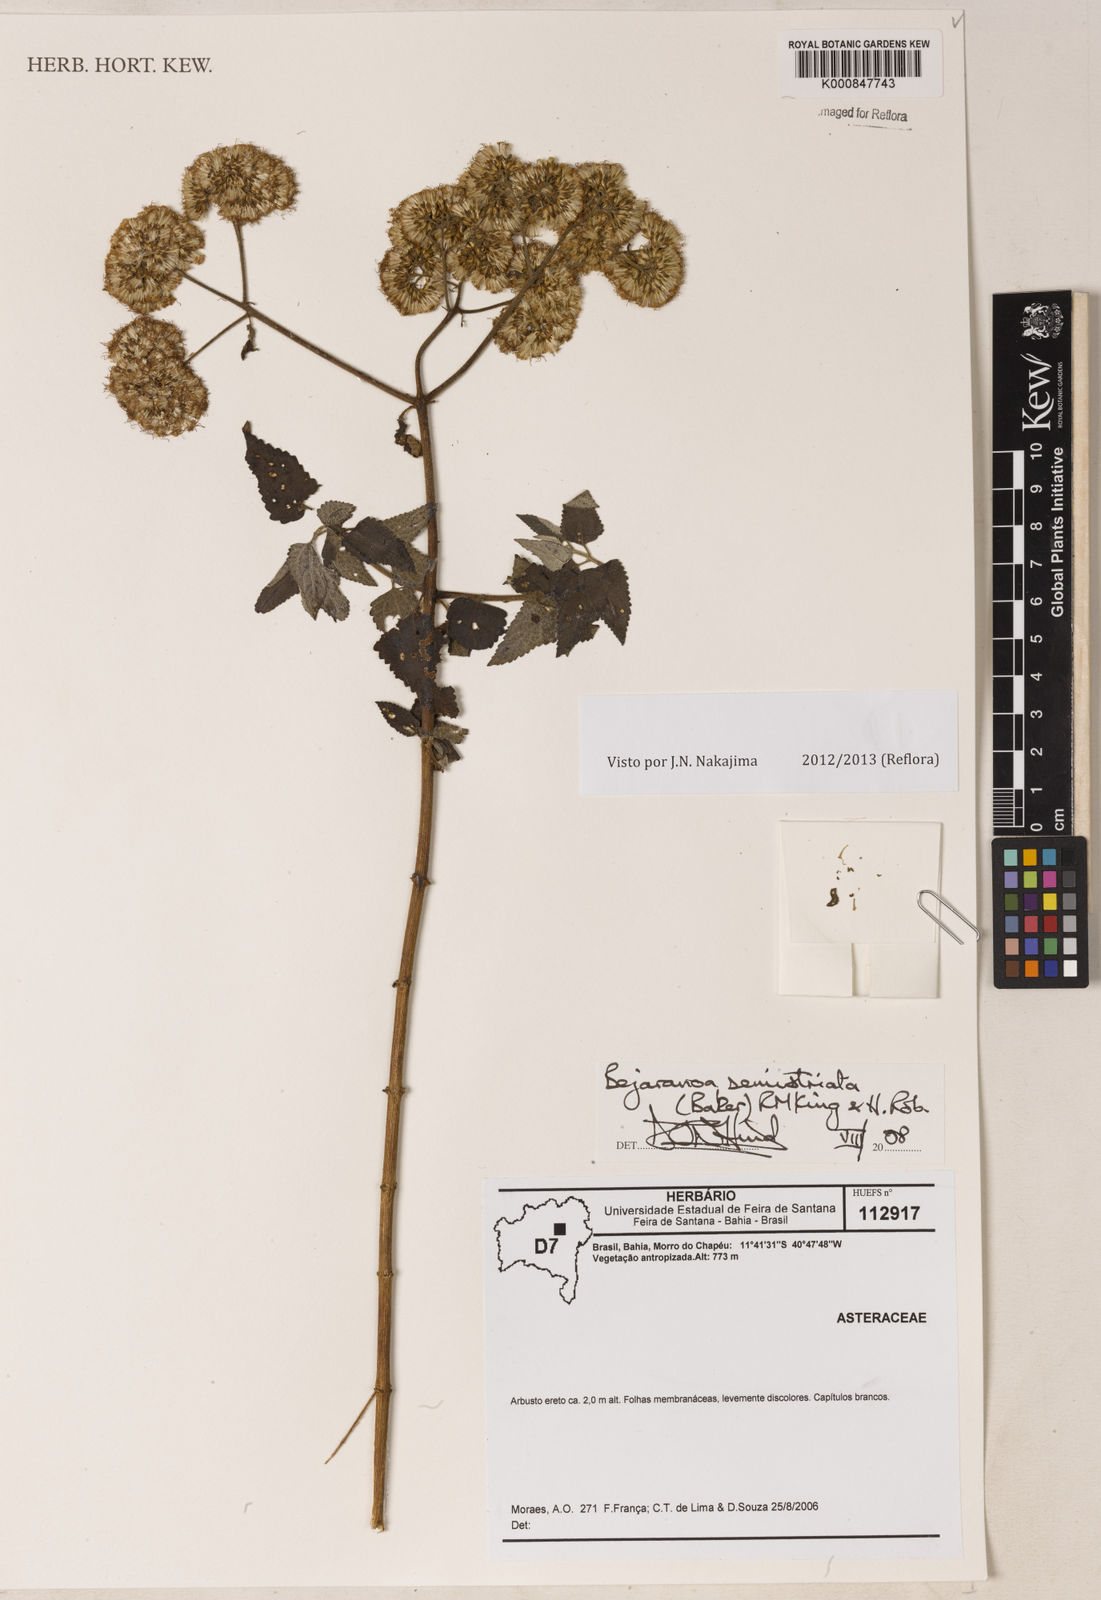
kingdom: Plantae
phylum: Tracheophyta
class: Magnoliopsida
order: Asterales
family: Asteraceae
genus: Bejaranoa
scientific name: Bejaranoa semistriata
